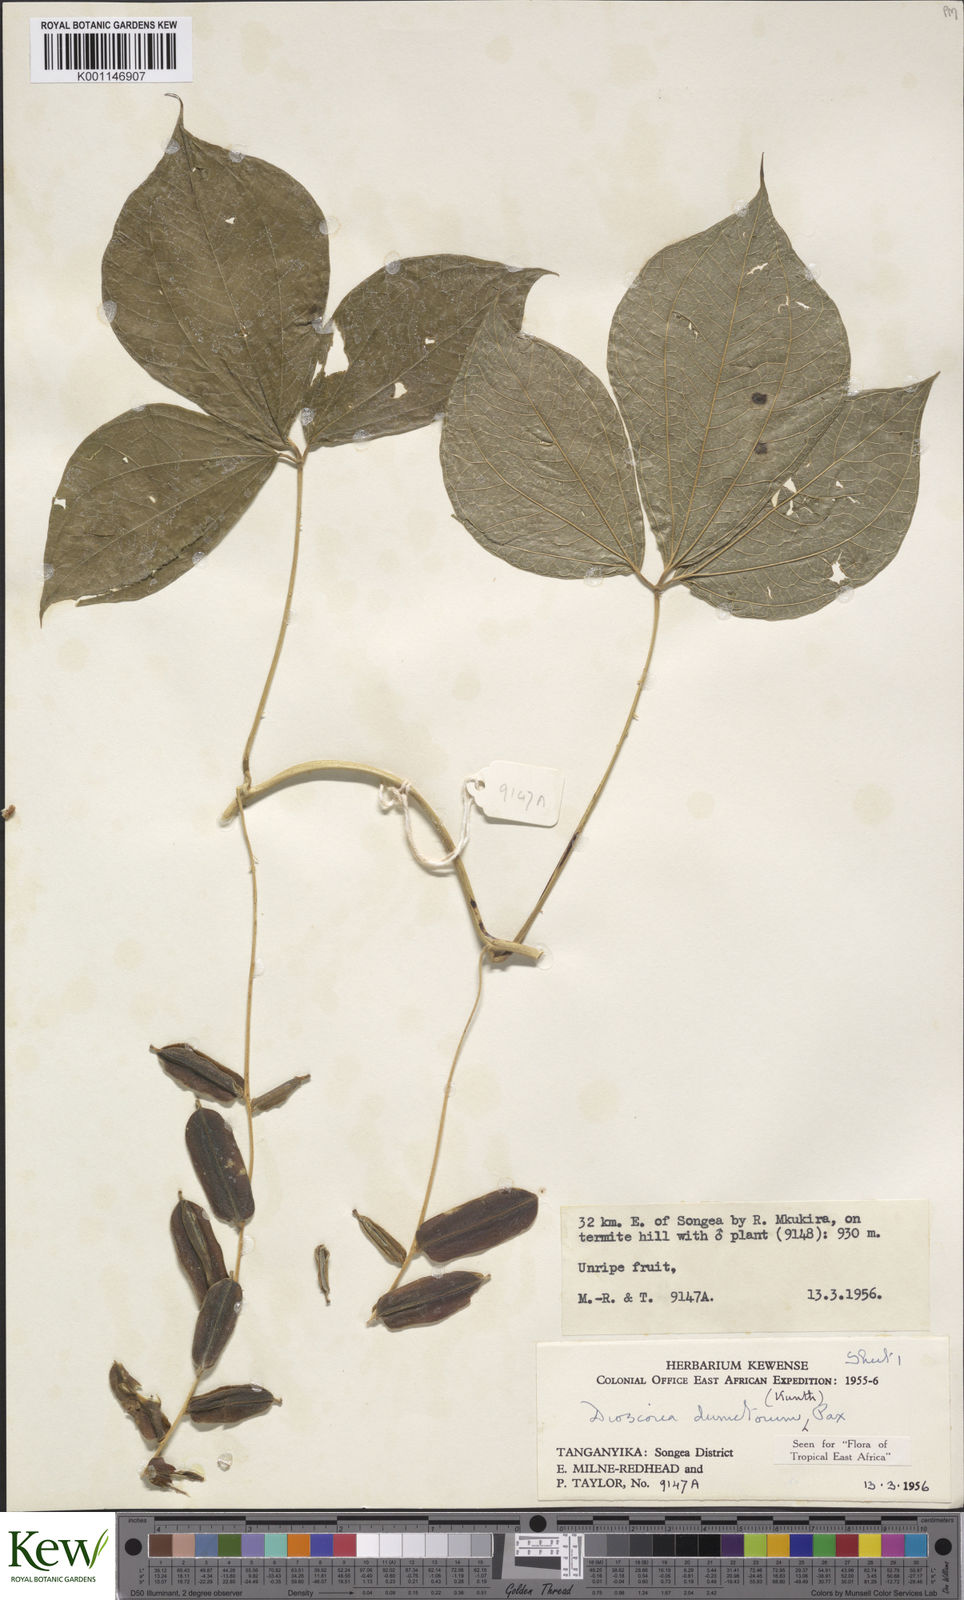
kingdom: Plantae
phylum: Tracheophyta
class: Liliopsida
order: Dioscoreales
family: Dioscoreaceae
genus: Dioscorea
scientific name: Dioscorea dumetorum
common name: African bitter yam
